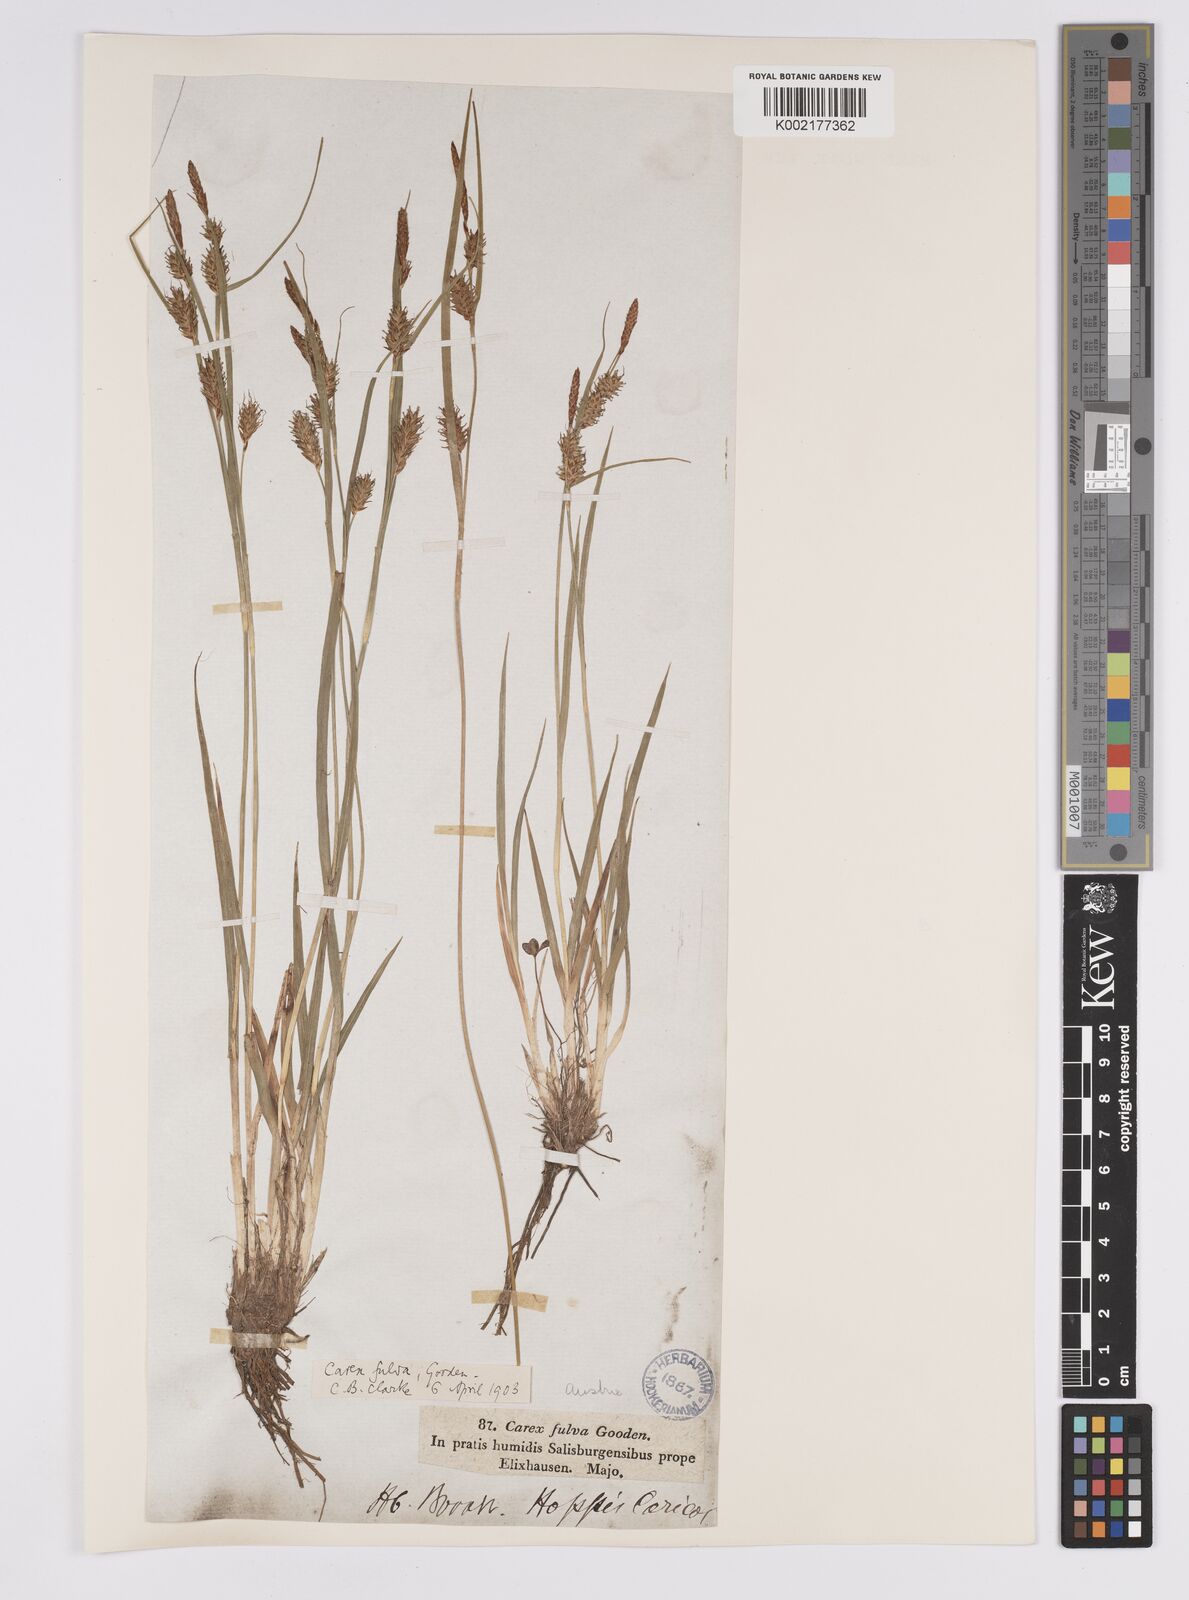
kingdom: Plantae
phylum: Tracheophyta
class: Liliopsida
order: Poales
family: Cyperaceae
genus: Carex
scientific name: Carex hostiana
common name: Tawny sedge
